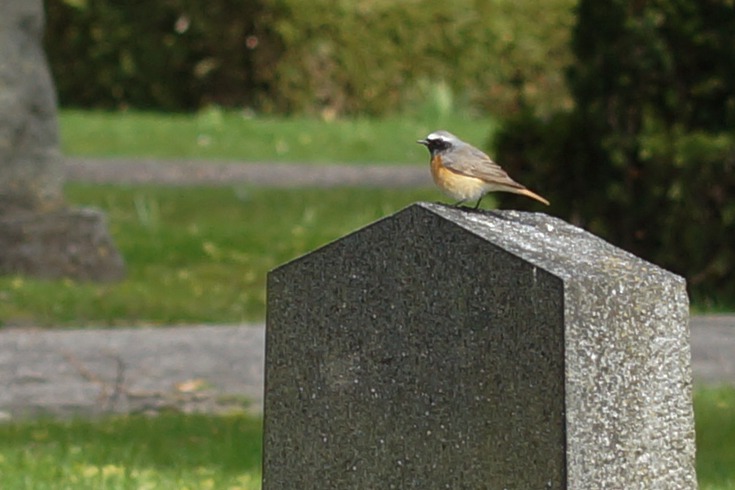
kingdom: Animalia
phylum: Chordata
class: Aves
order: Passeriformes
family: Muscicapidae
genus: Phoenicurus
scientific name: Phoenicurus phoenicurus
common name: Rødstjert
